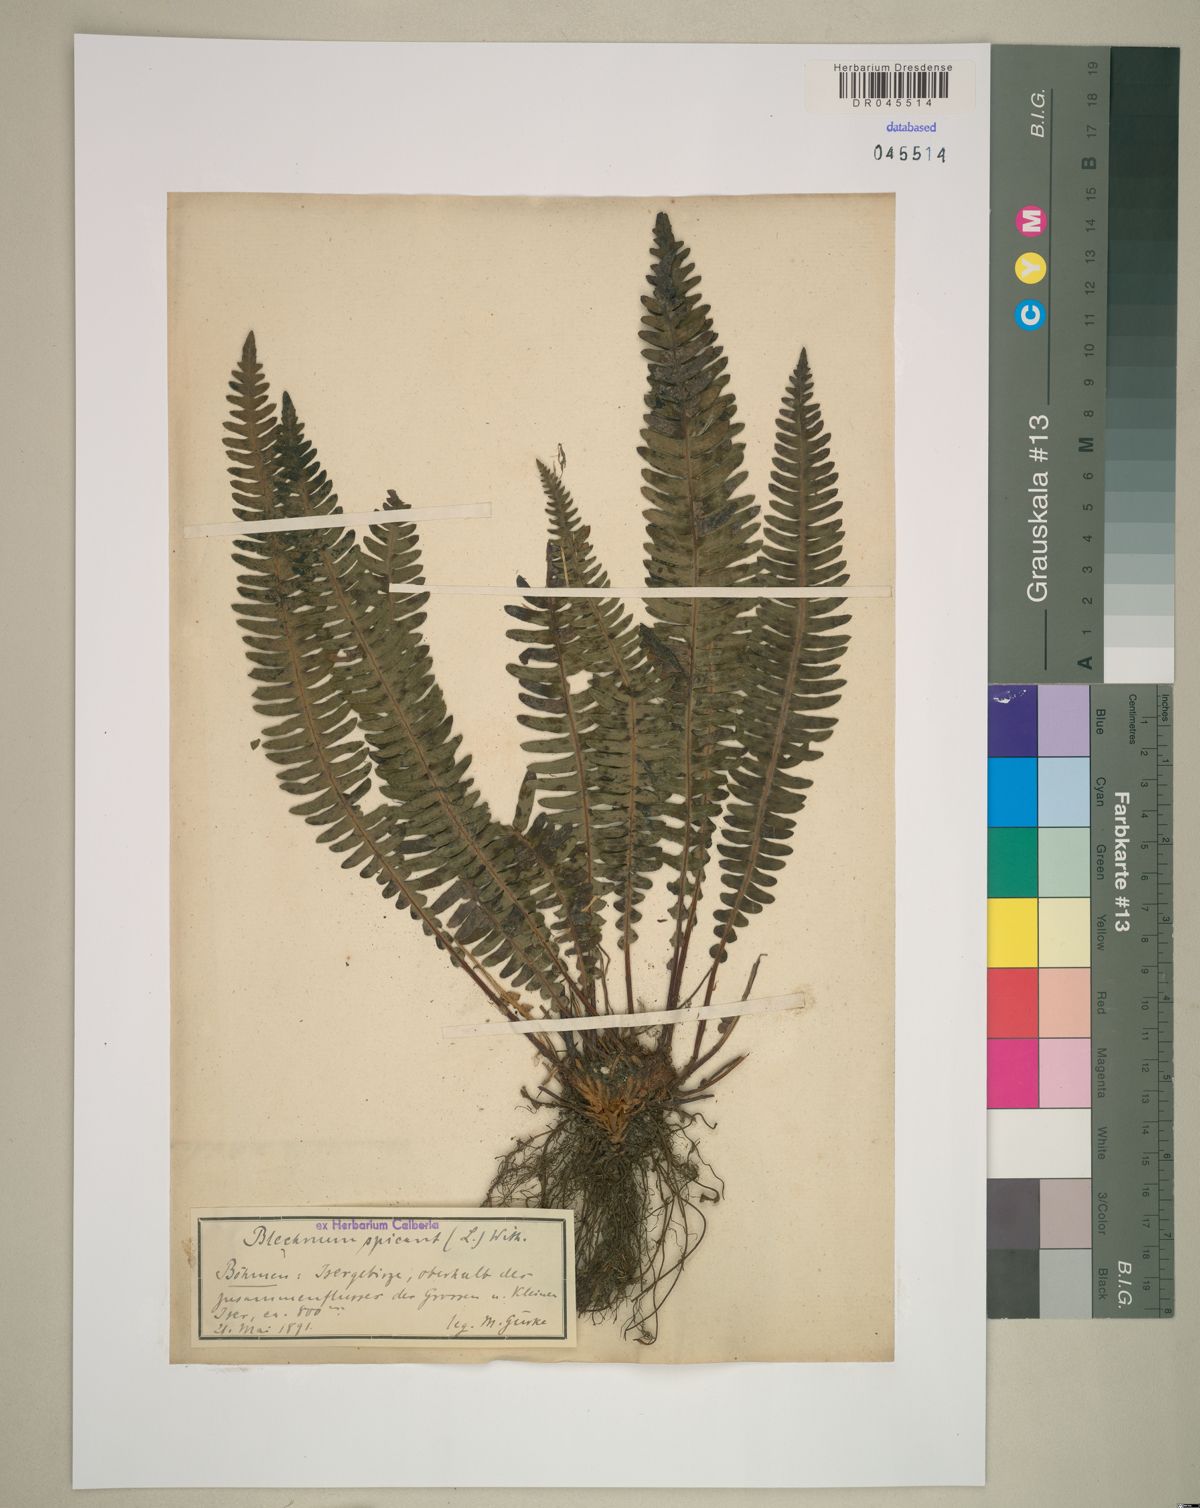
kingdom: Plantae
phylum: Tracheophyta
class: Polypodiopsida
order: Polypodiales
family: Blechnaceae
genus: Struthiopteris
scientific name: Struthiopteris spicant
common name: Deer fern
